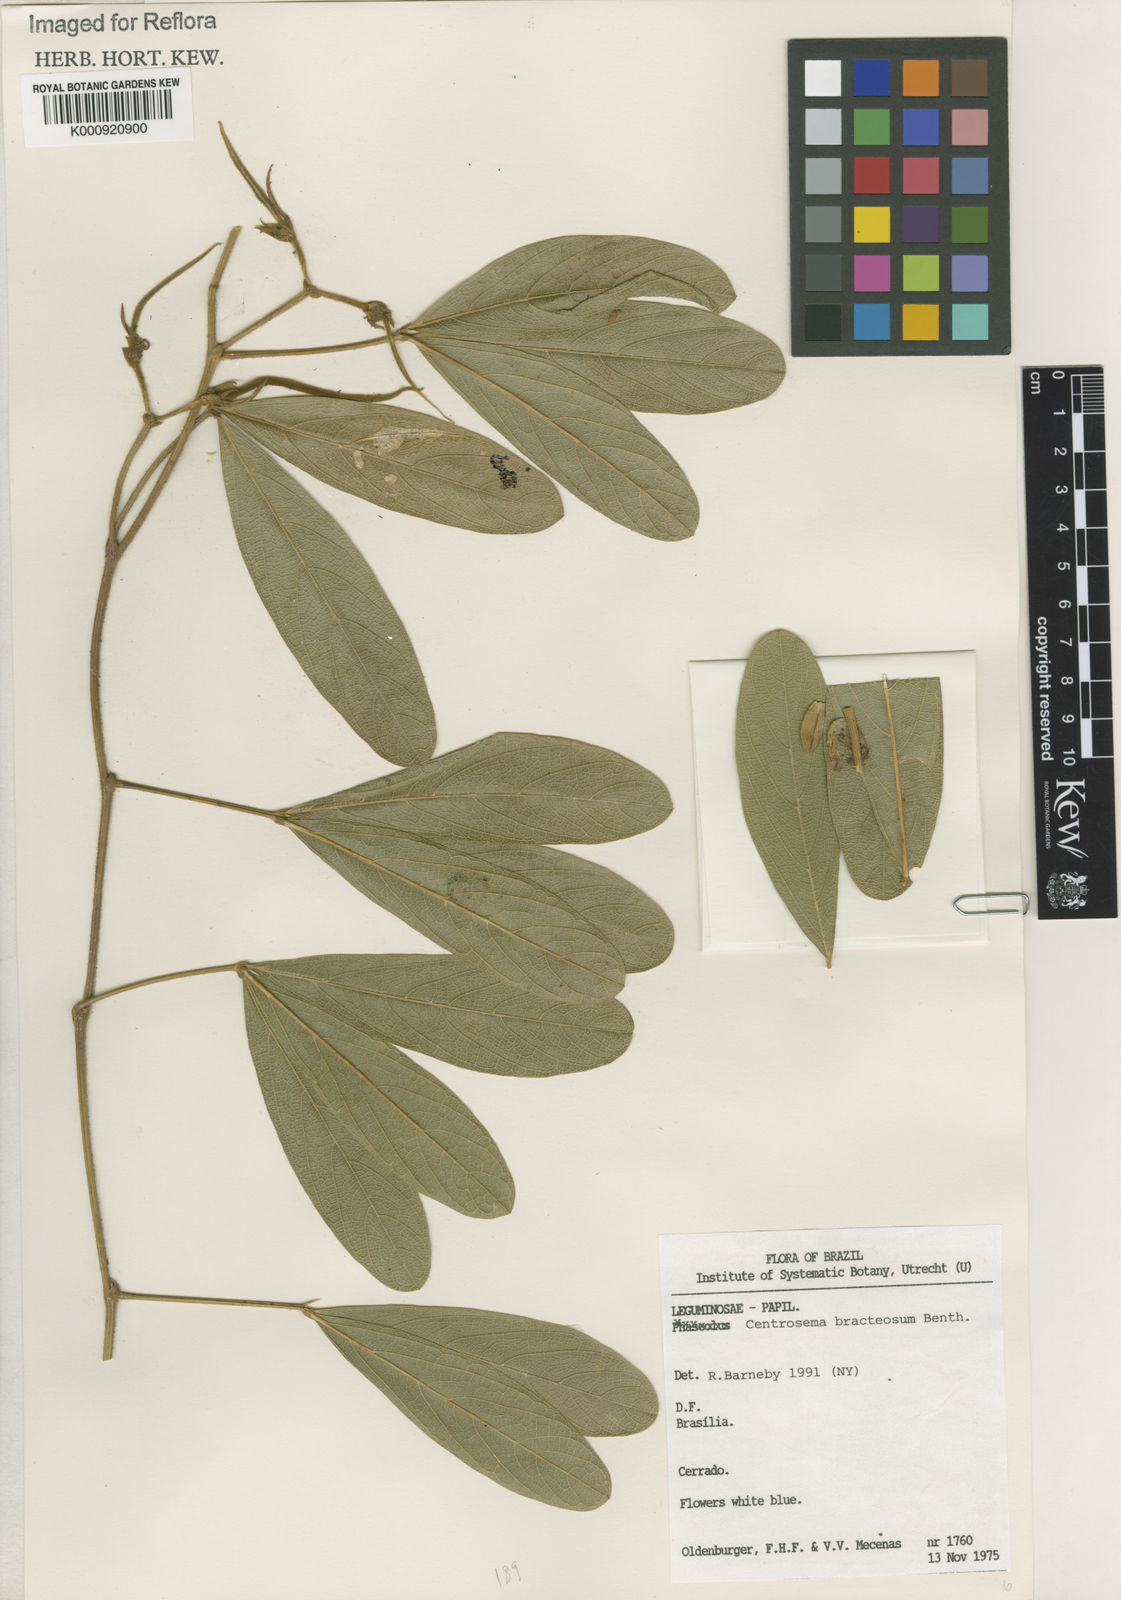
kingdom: Plantae
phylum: Tracheophyta
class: Magnoliopsida
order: Fabales
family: Fabaceae
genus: Centrosema
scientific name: Centrosema bracteosum
